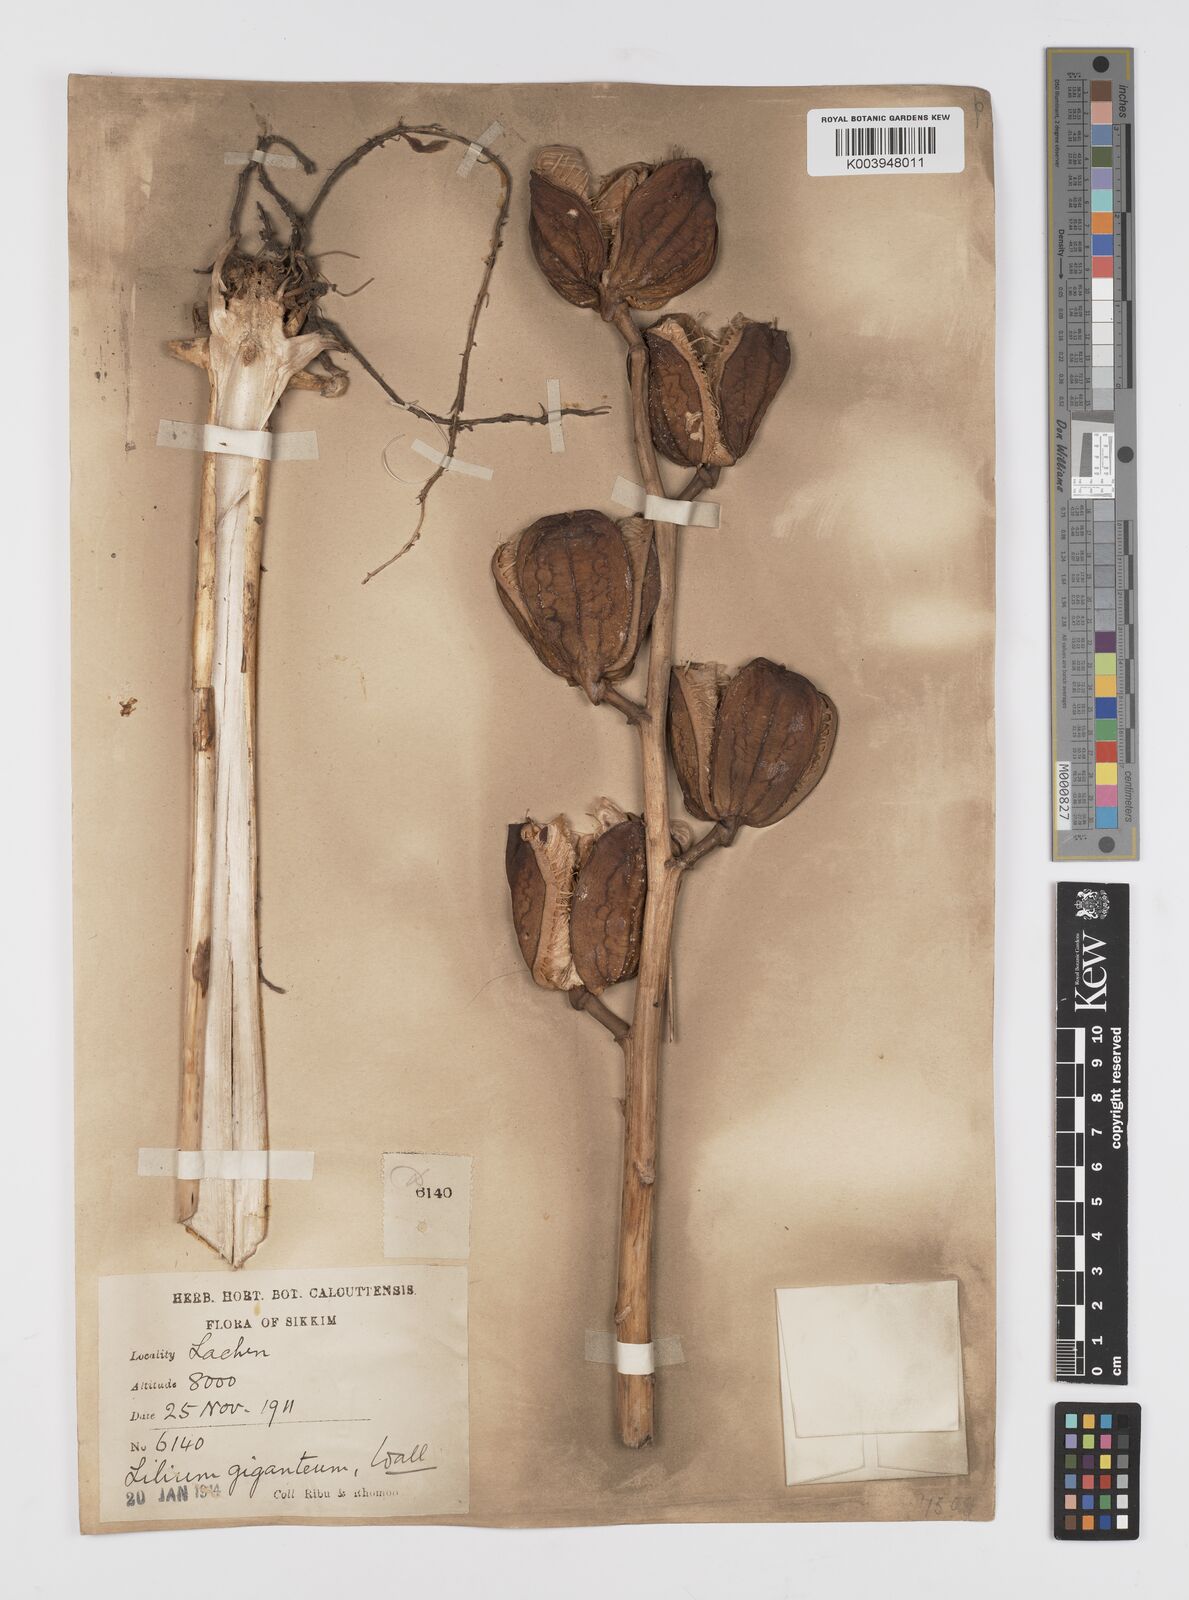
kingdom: Plantae
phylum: Tracheophyta
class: Liliopsida
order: Liliales
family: Liliaceae
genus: Cardiocrinum
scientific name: Cardiocrinum giganteum
